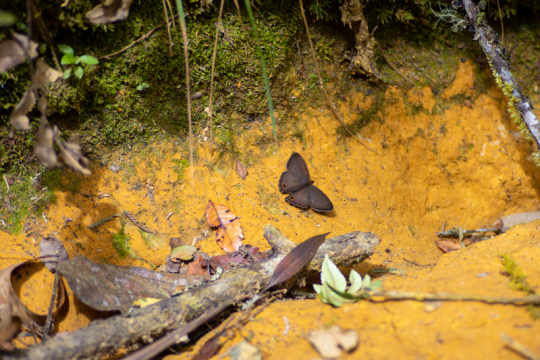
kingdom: Animalia
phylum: Arthropoda
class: Insecta
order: Lepidoptera
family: Nymphalidae
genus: Euptychia
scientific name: Euptychia Cissia pompilia
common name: Plain Satyr
